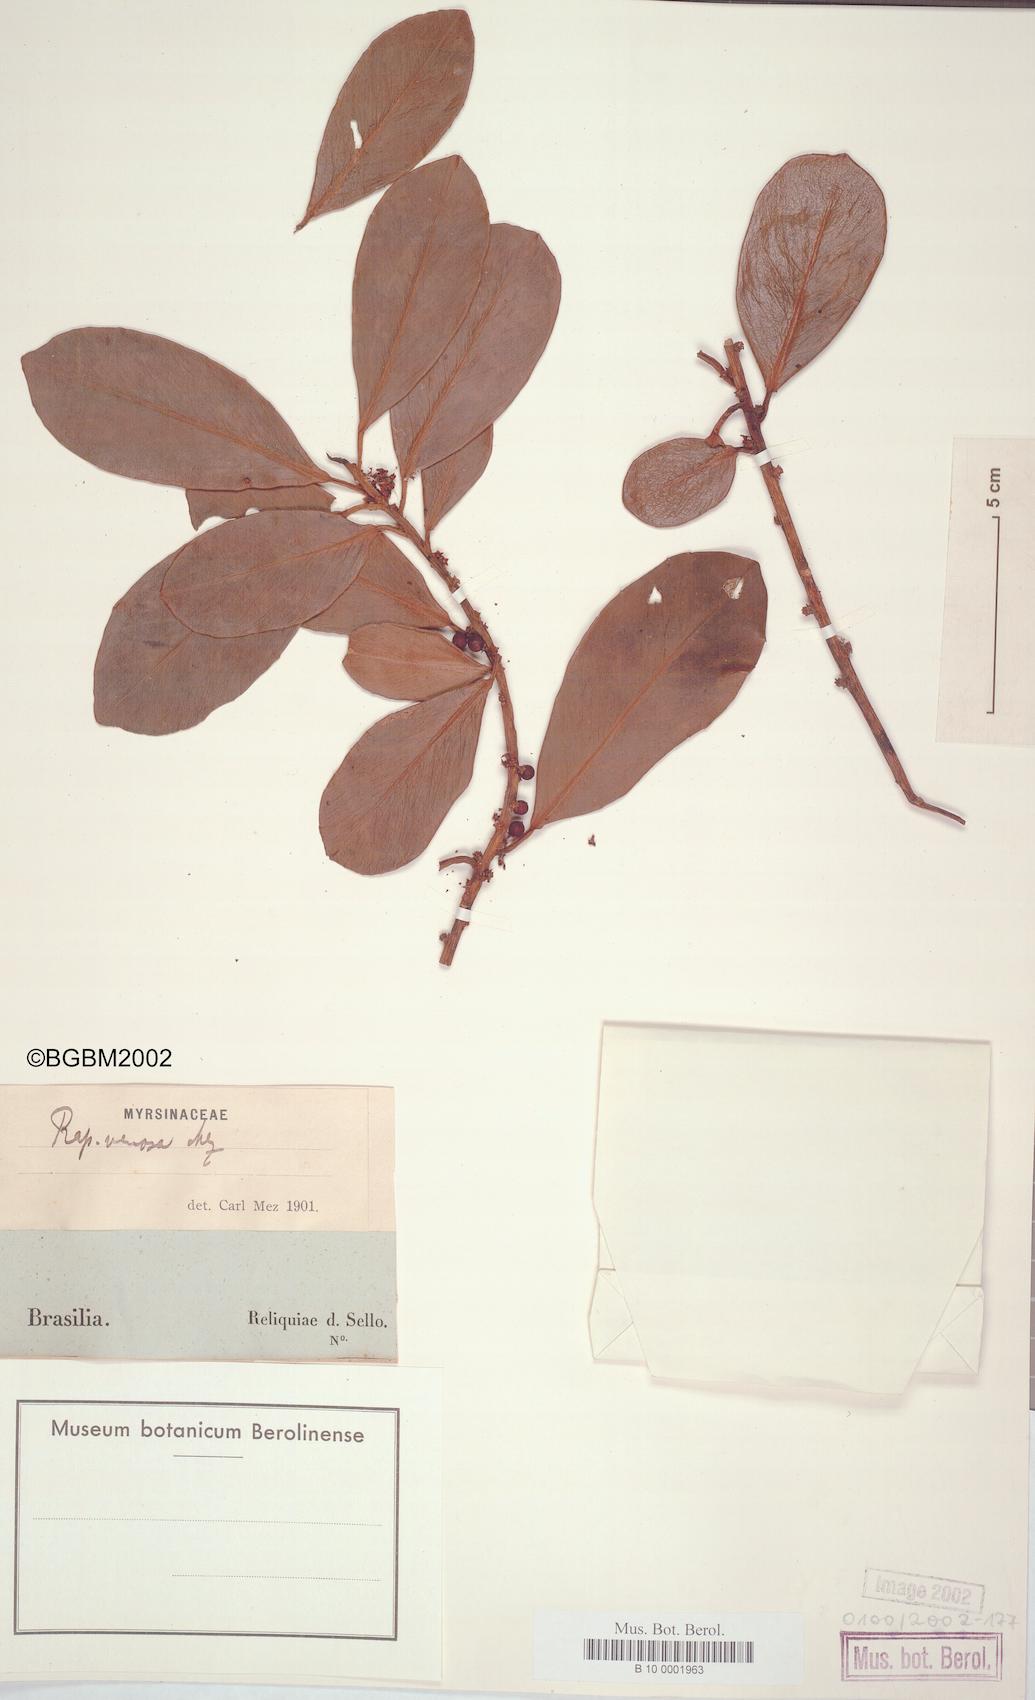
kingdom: Plantae
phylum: Tracheophyta
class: Magnoliopsida
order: Ericales
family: Primulaceae
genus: Myrsine
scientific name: Myrsine
